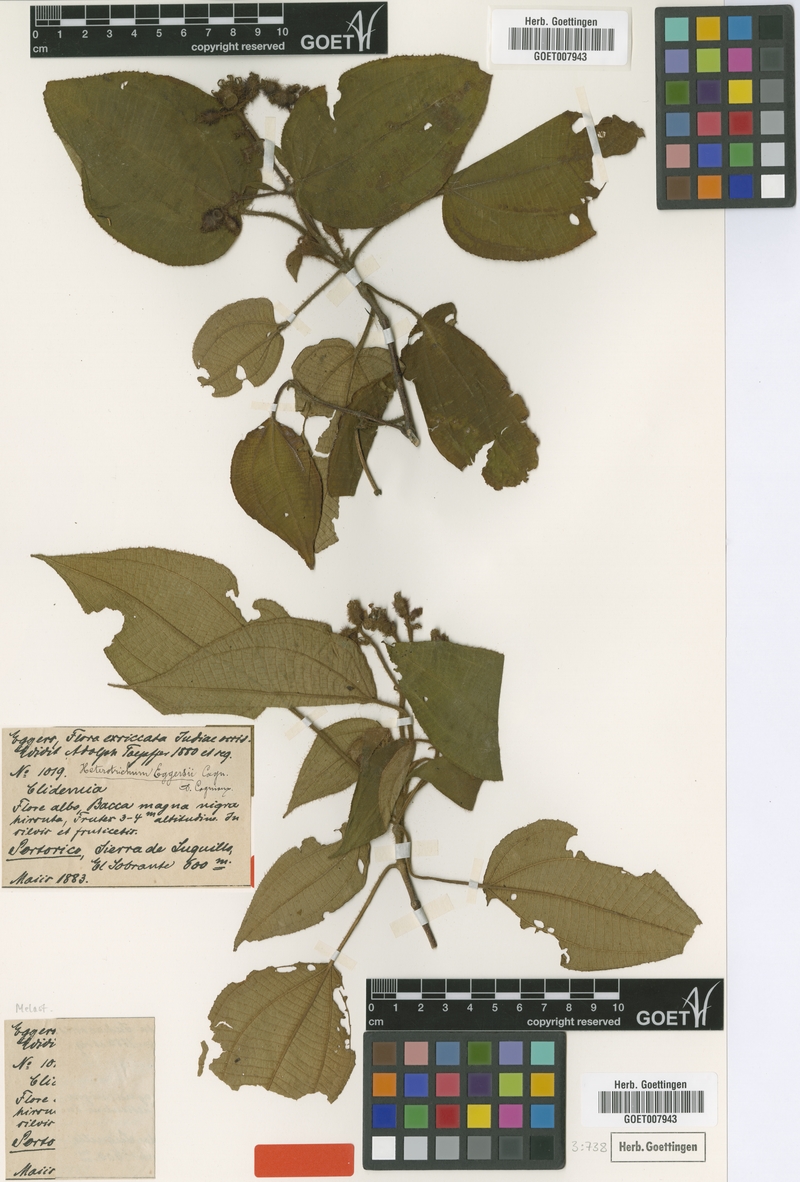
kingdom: Plantae
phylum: Tracheophyta
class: Magnoliopsida
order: Myrtales
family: Melastomataceae
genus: Miconia
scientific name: Miconia umbellata
